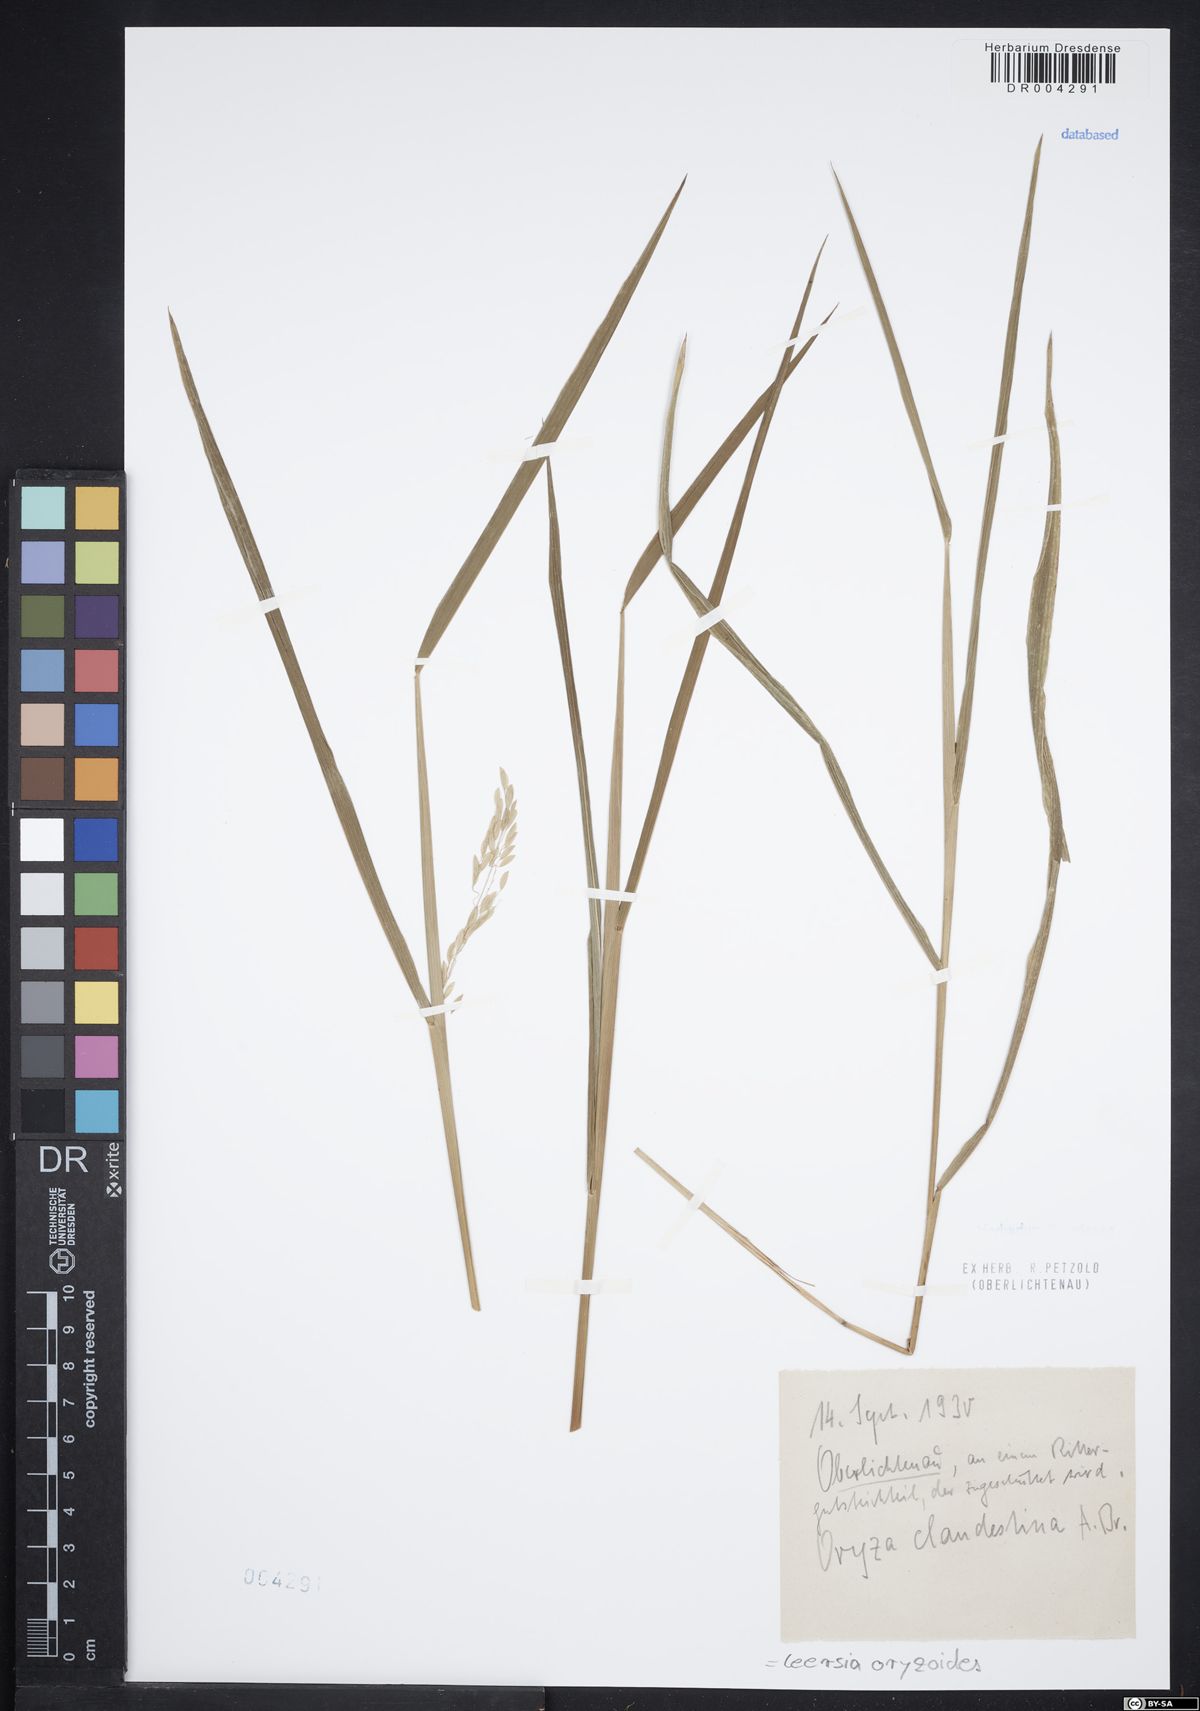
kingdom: Plantae
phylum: Tracheophyta
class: Liliopsida
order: Poales
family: Poaceae
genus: Leersia
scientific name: Leersia oryzoides
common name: Cut-grass
